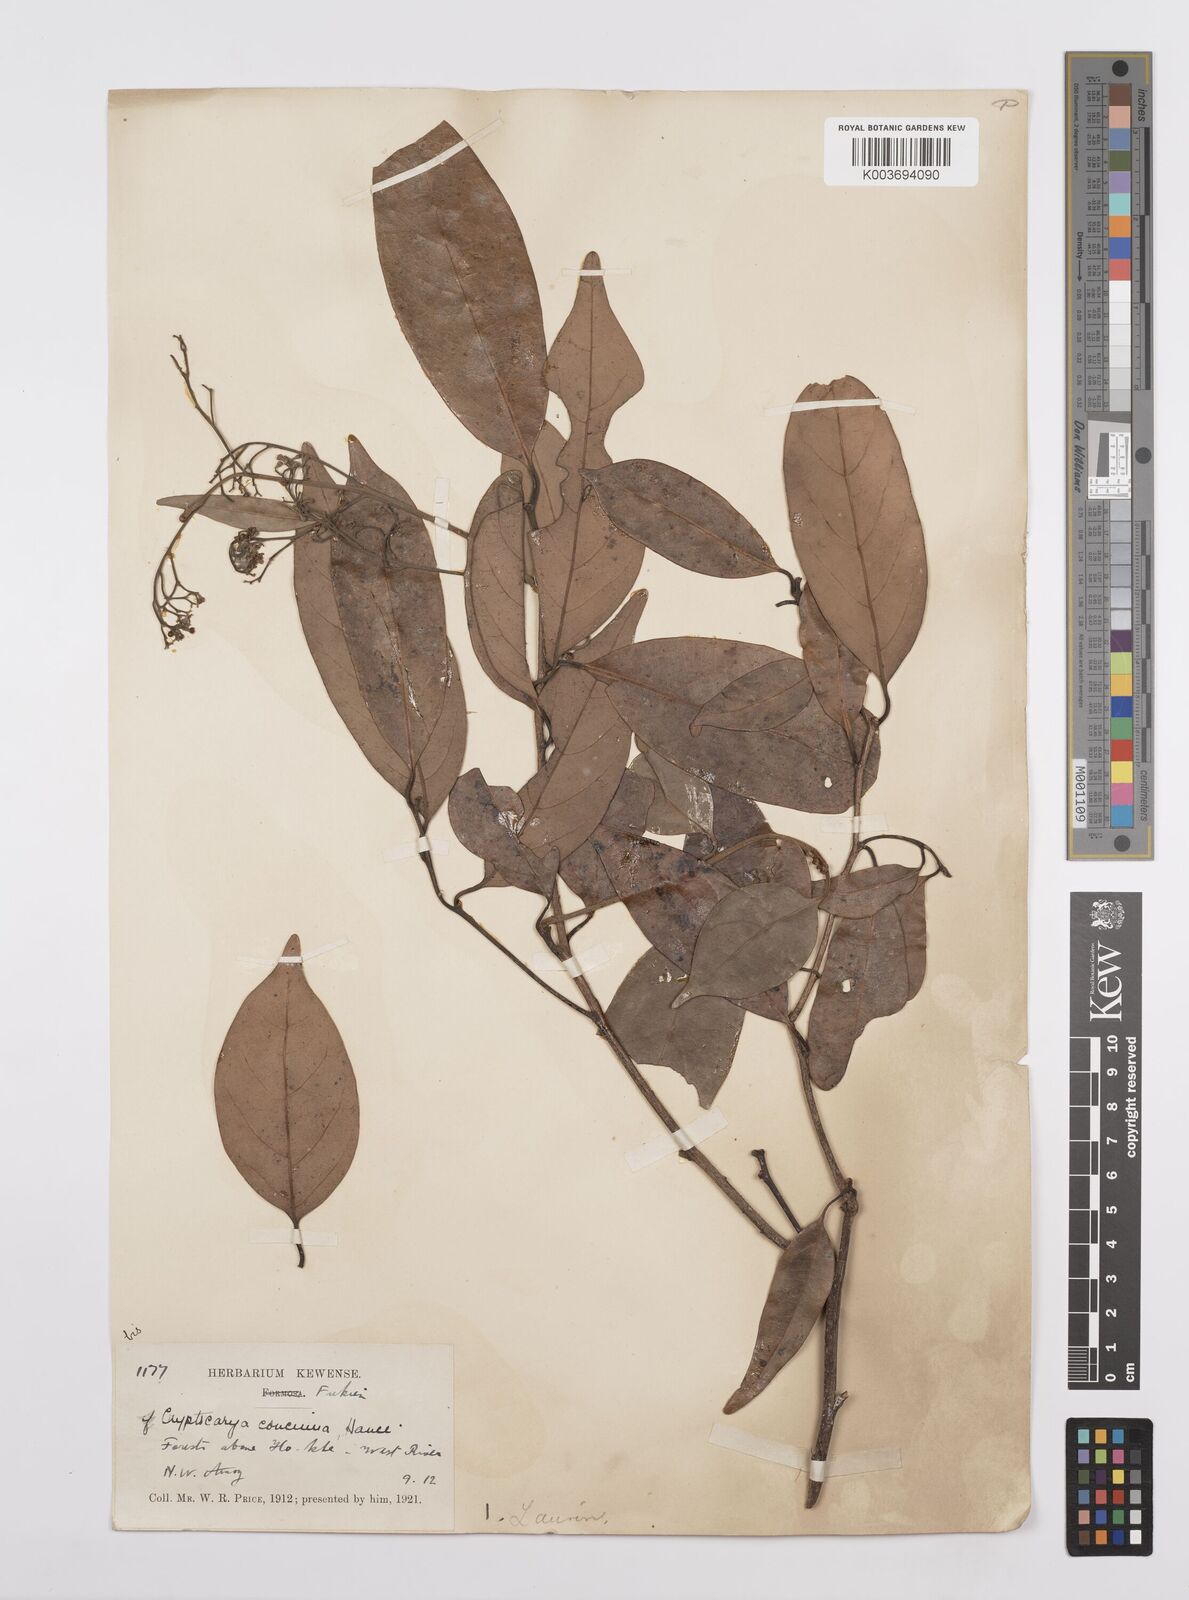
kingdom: Plantae
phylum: Tracheophyta
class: Magnoliopsida
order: Laurales
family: Lauraceae
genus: Cryptocarya
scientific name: Cryptocarya concinna
